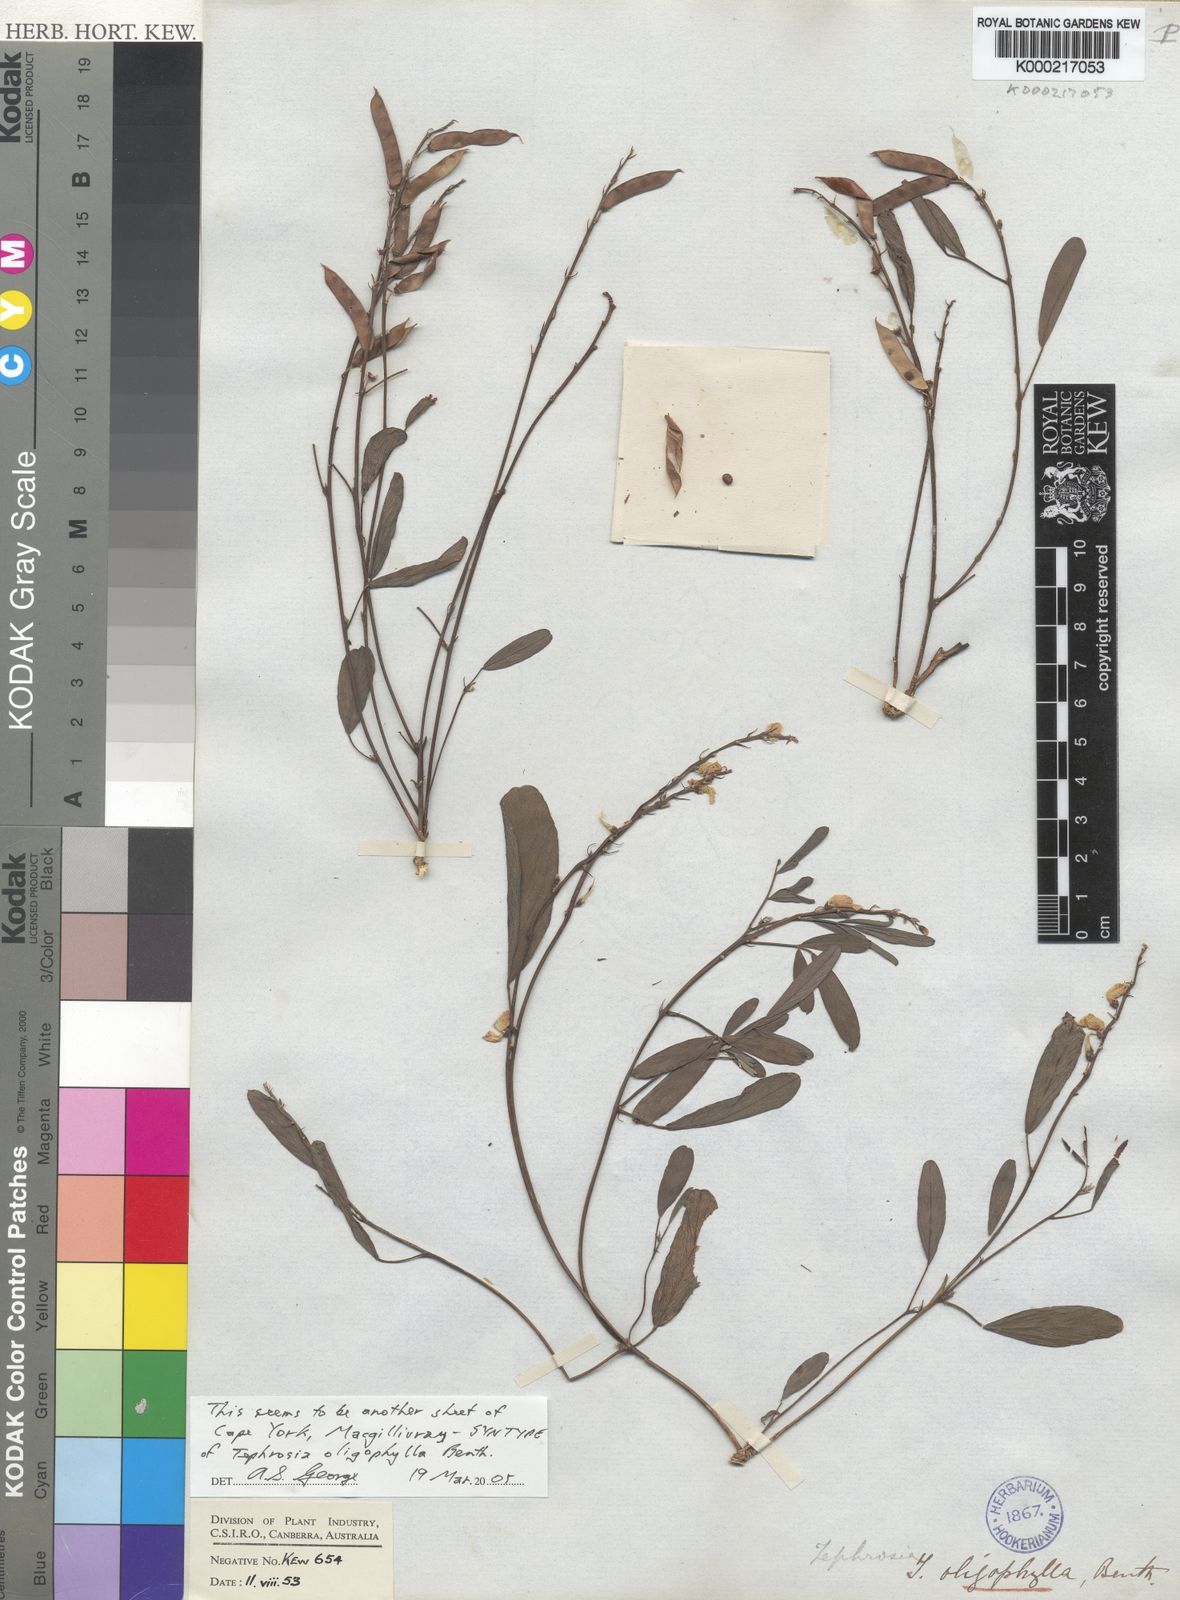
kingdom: Plantae
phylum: Tracheophyta
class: Magnoliopsida
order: Fabales
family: Fabaceae
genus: Tephrosia
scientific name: Tephrosia oligophylla
